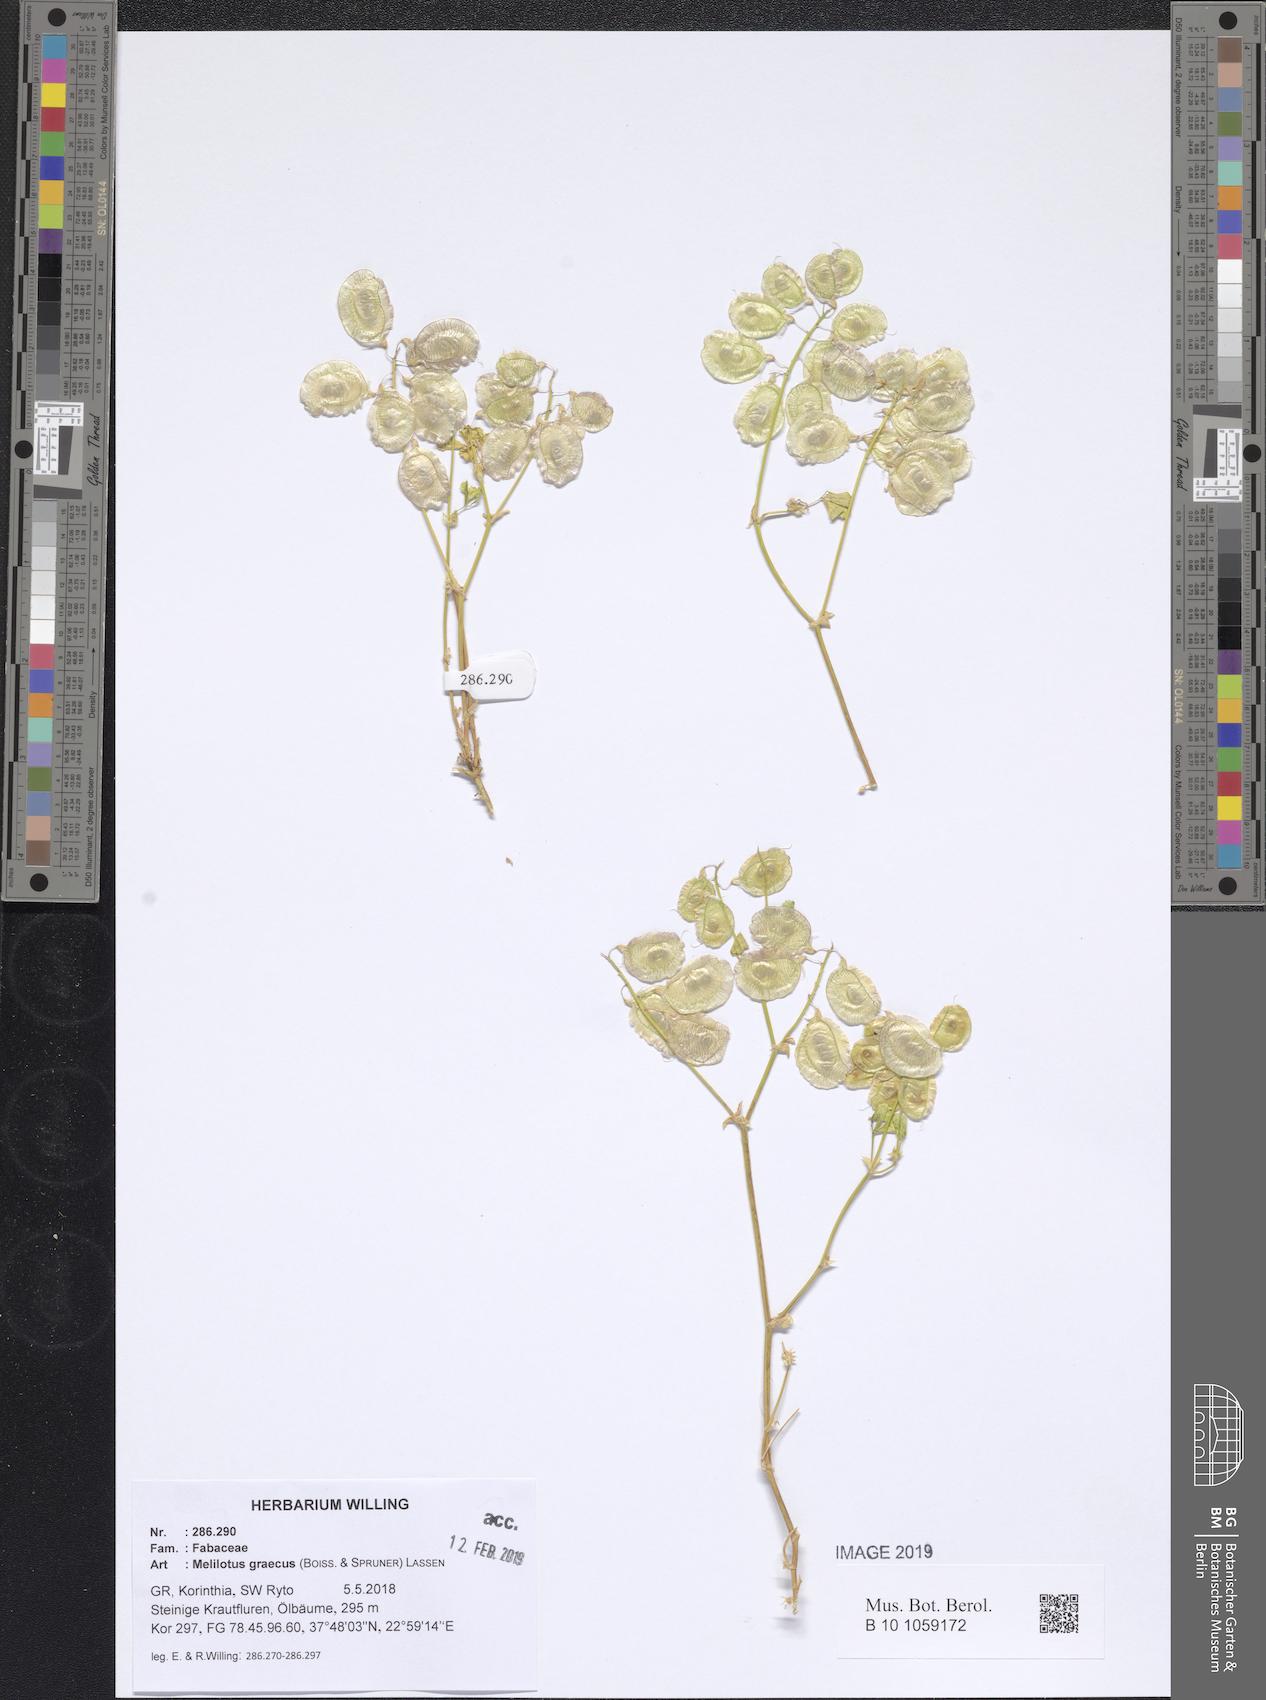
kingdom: Plantae
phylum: Tracheophyta
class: Magnoliopsida
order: Fabales
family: Fabaceae
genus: Trigonella
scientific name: Trigonella graeca
